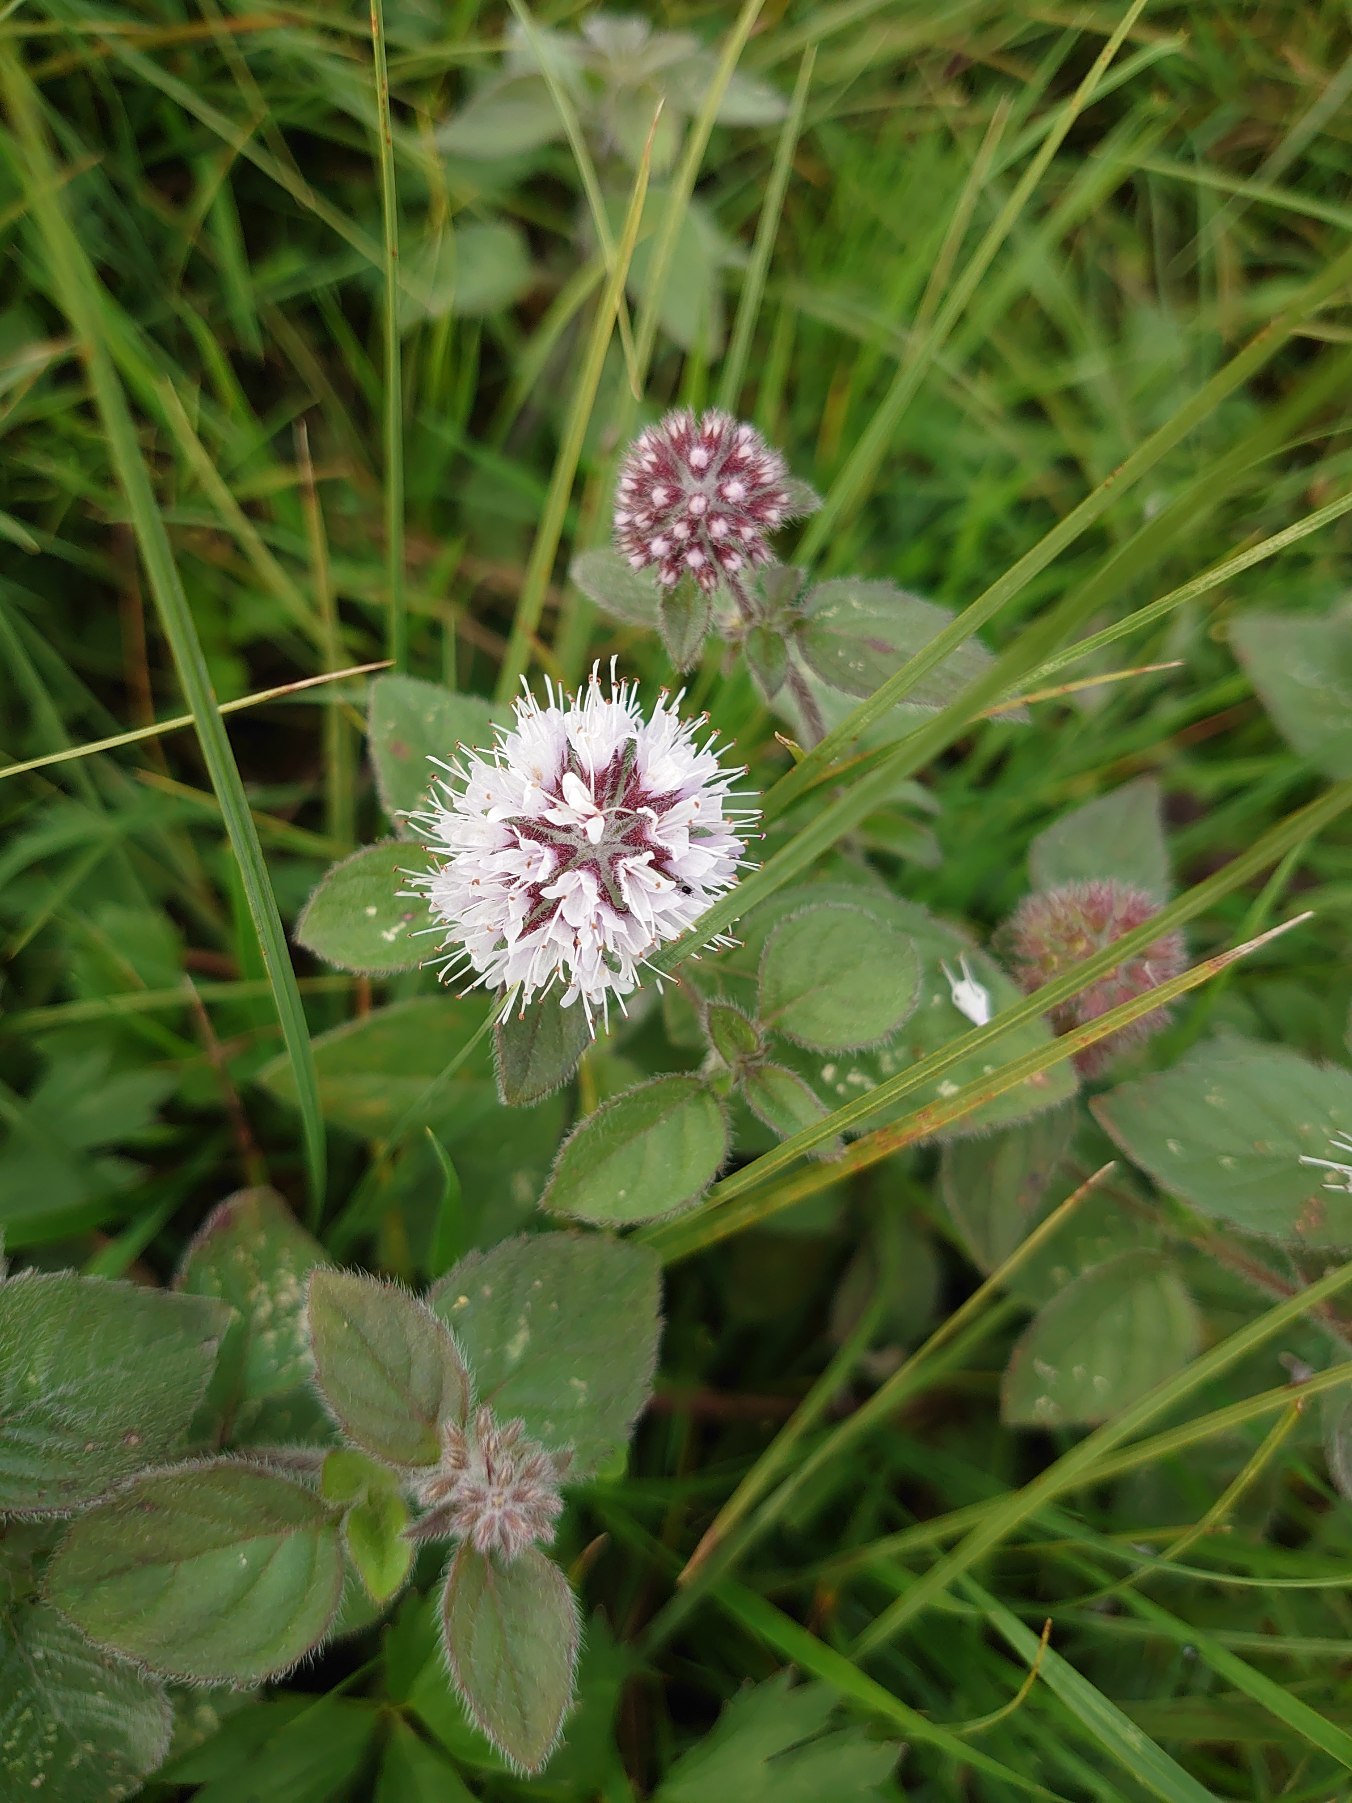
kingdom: Plantae
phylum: Tracheophyta
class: Magnoliopsida
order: Lamiales
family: Lamiaceae
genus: Mentha
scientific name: Mentha aquatica
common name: Vand-mynte
